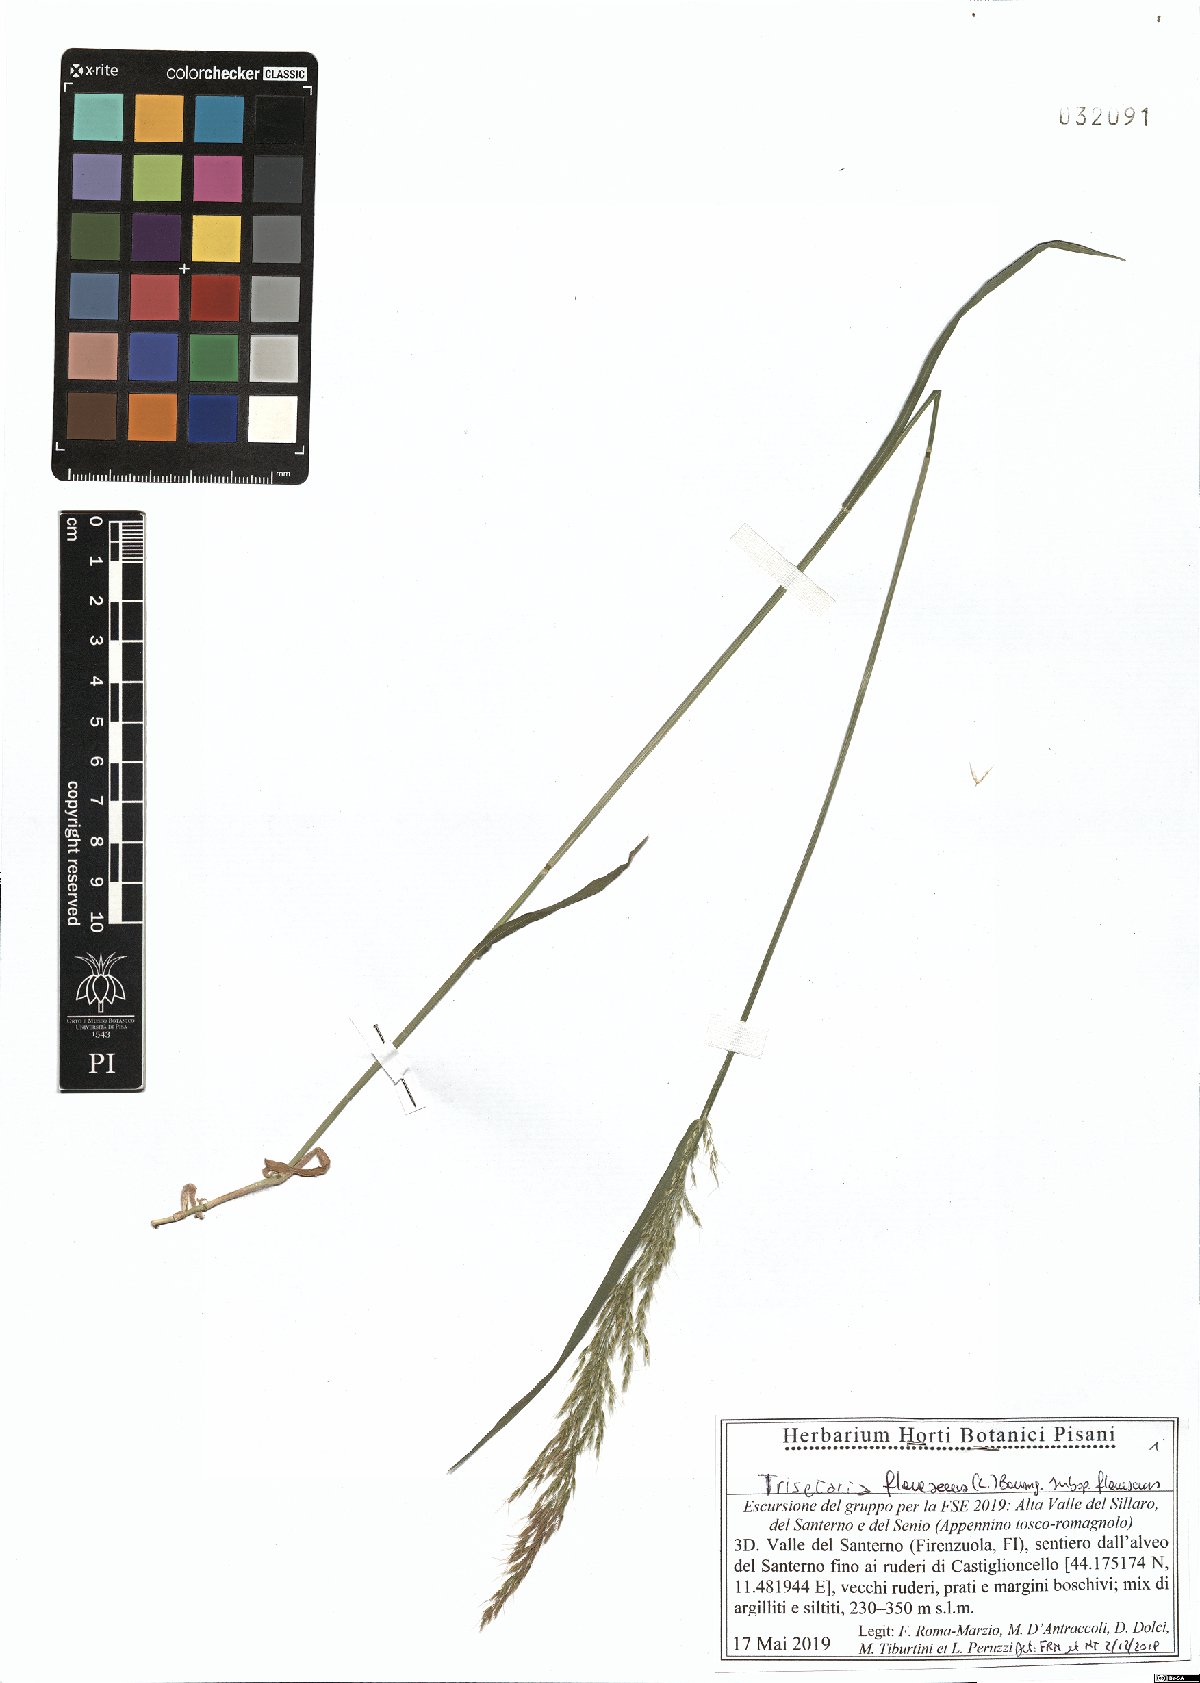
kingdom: Plantae
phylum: Tracheophyta
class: Liliopsida
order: Poales
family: Poaceae
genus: Trisetum
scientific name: Trisetum flavescens
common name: Yellow oat-grass
